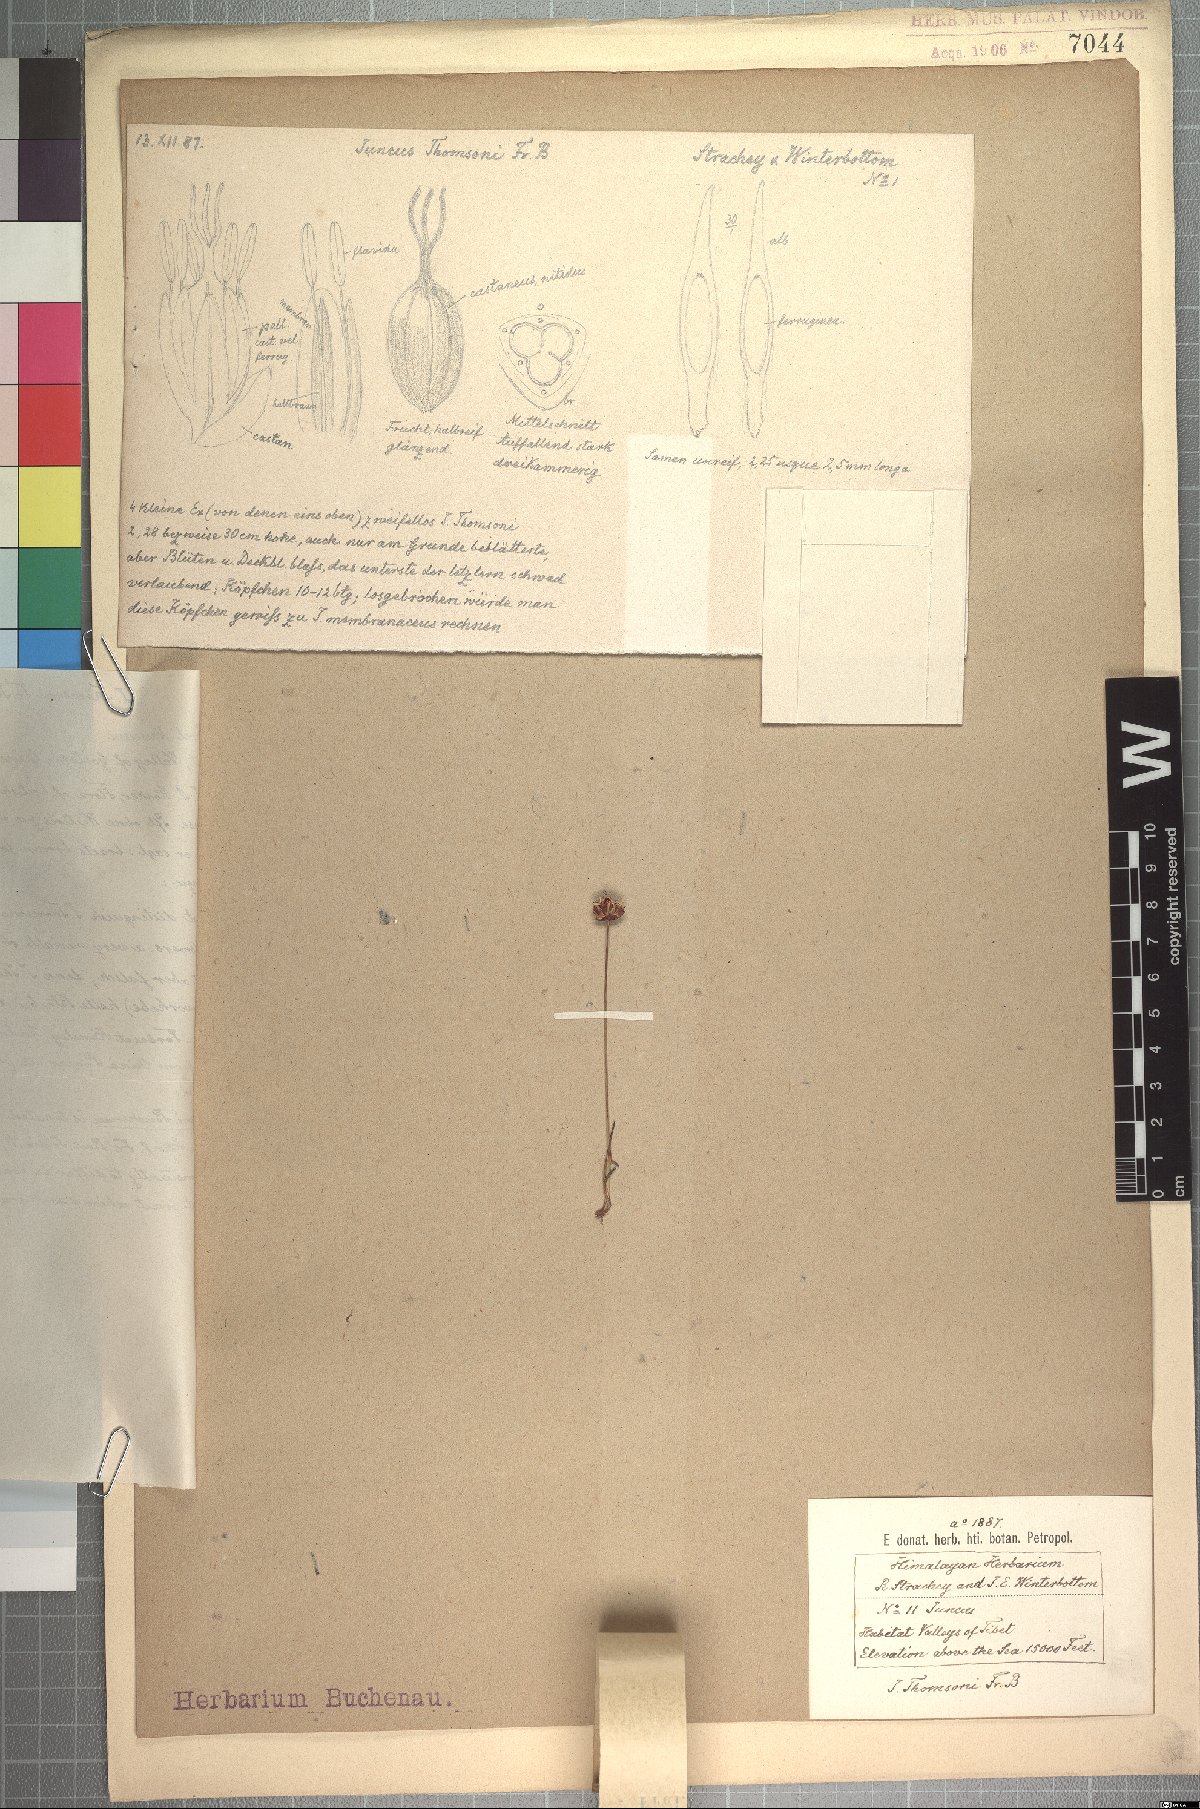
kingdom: Plantae
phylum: Tracheophyta
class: Liliopsida
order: Poales
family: Juncaceae
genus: Juncus
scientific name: Juncus thomsonii
